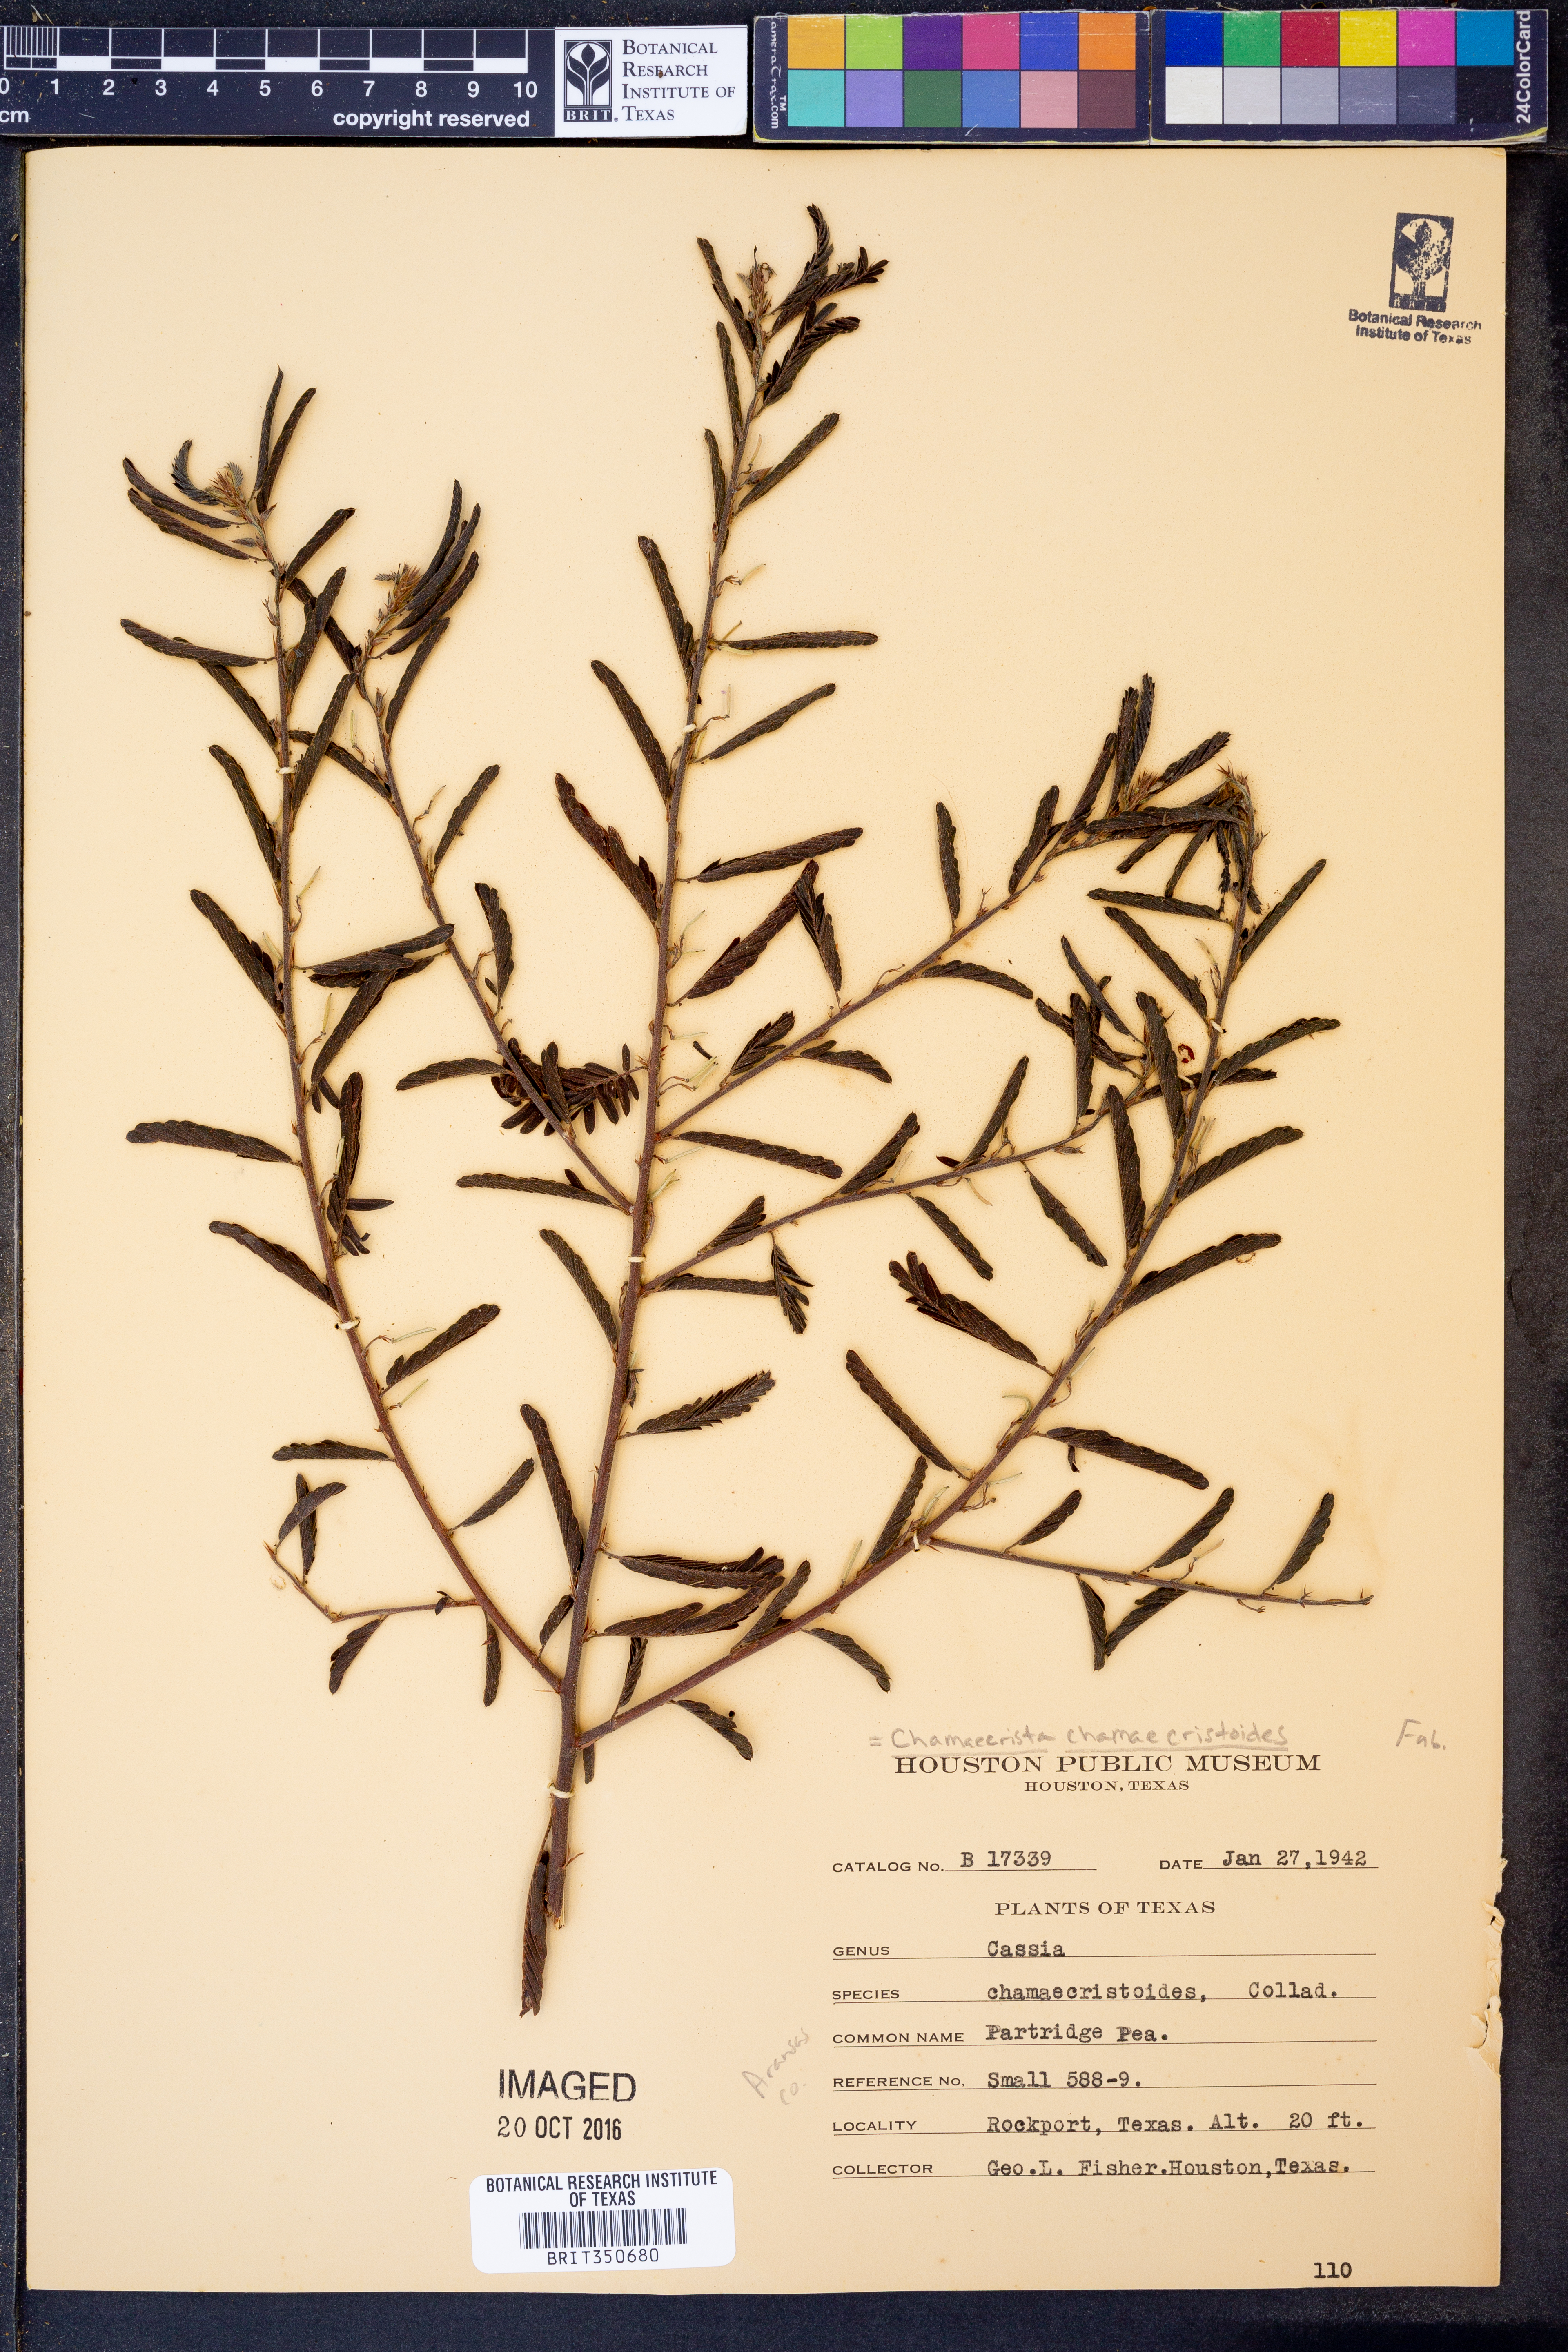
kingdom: Plantae
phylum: Tracheophyta
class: Magnoliopsida
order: Fabales
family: Fabaceae
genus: Chamaecrista
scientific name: Chamaecrista chamaecristoides
